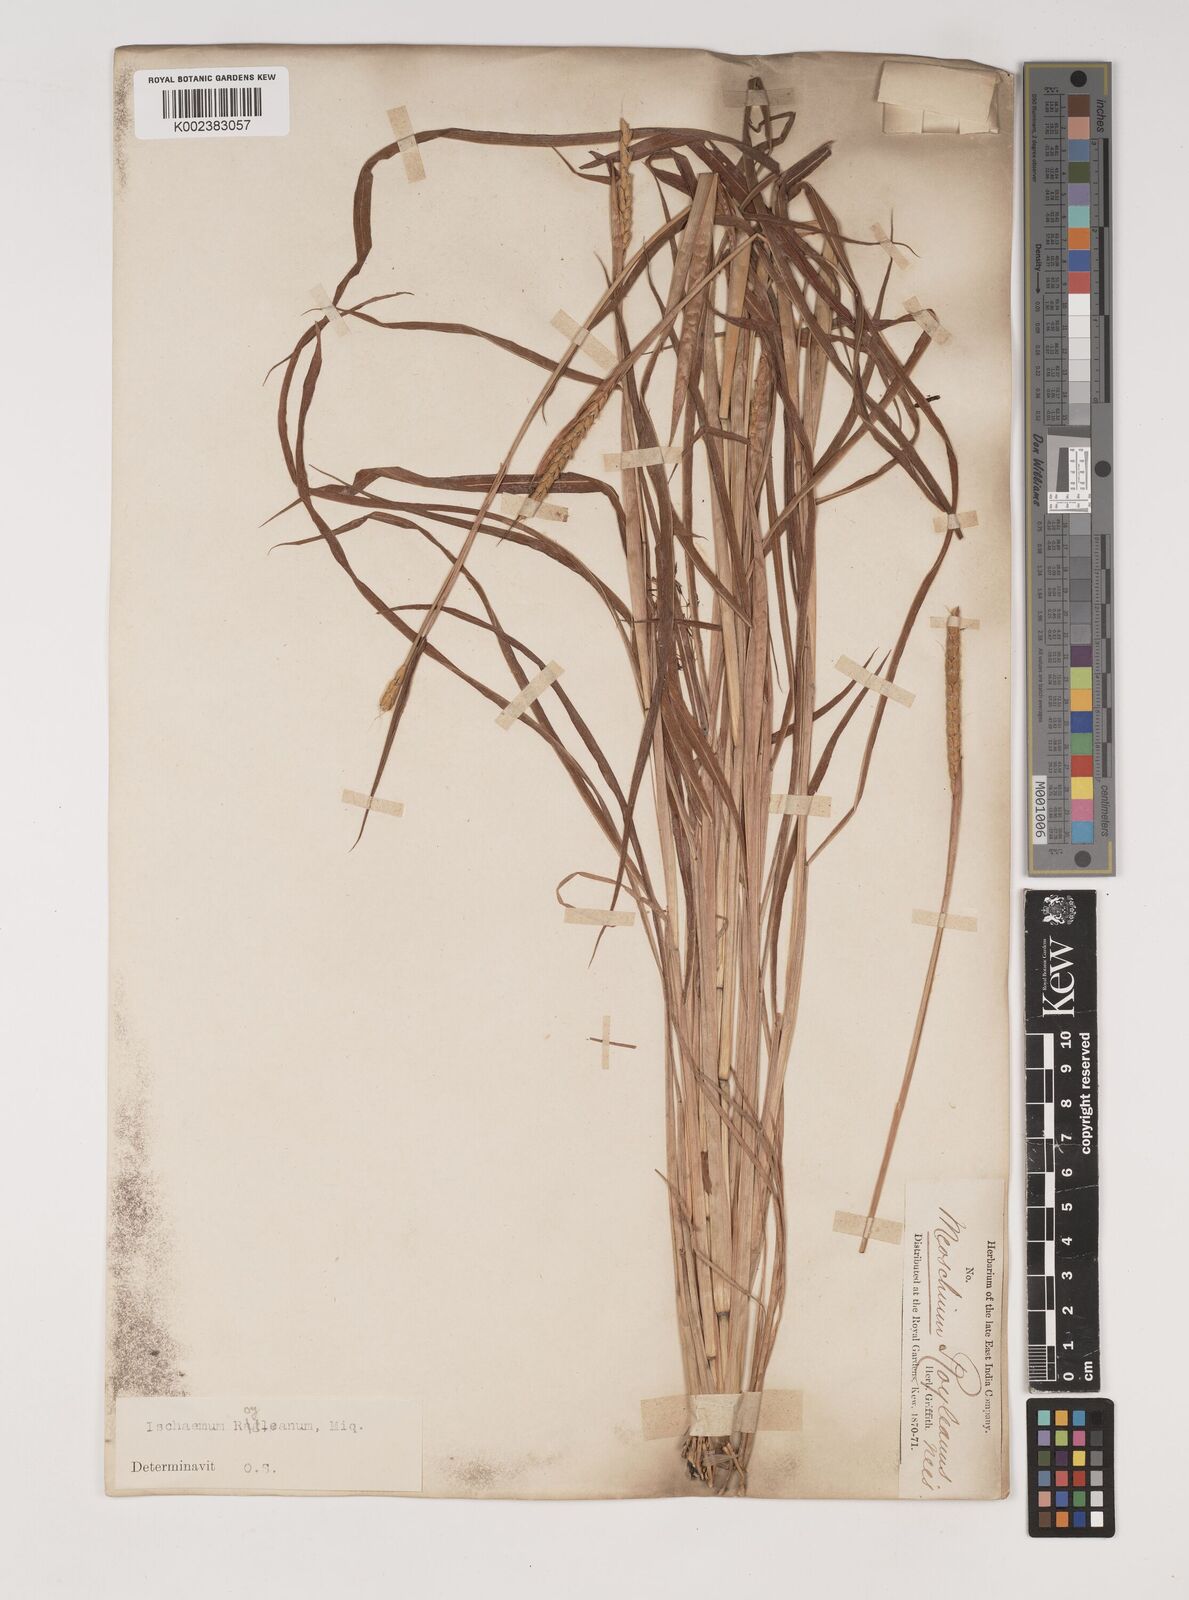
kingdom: Plantae
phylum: Tracheophyta
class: Liliopsida
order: Poales
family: Poaceae
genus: Ischaemum
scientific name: Ischaemum rugosum
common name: Saramatta grass
